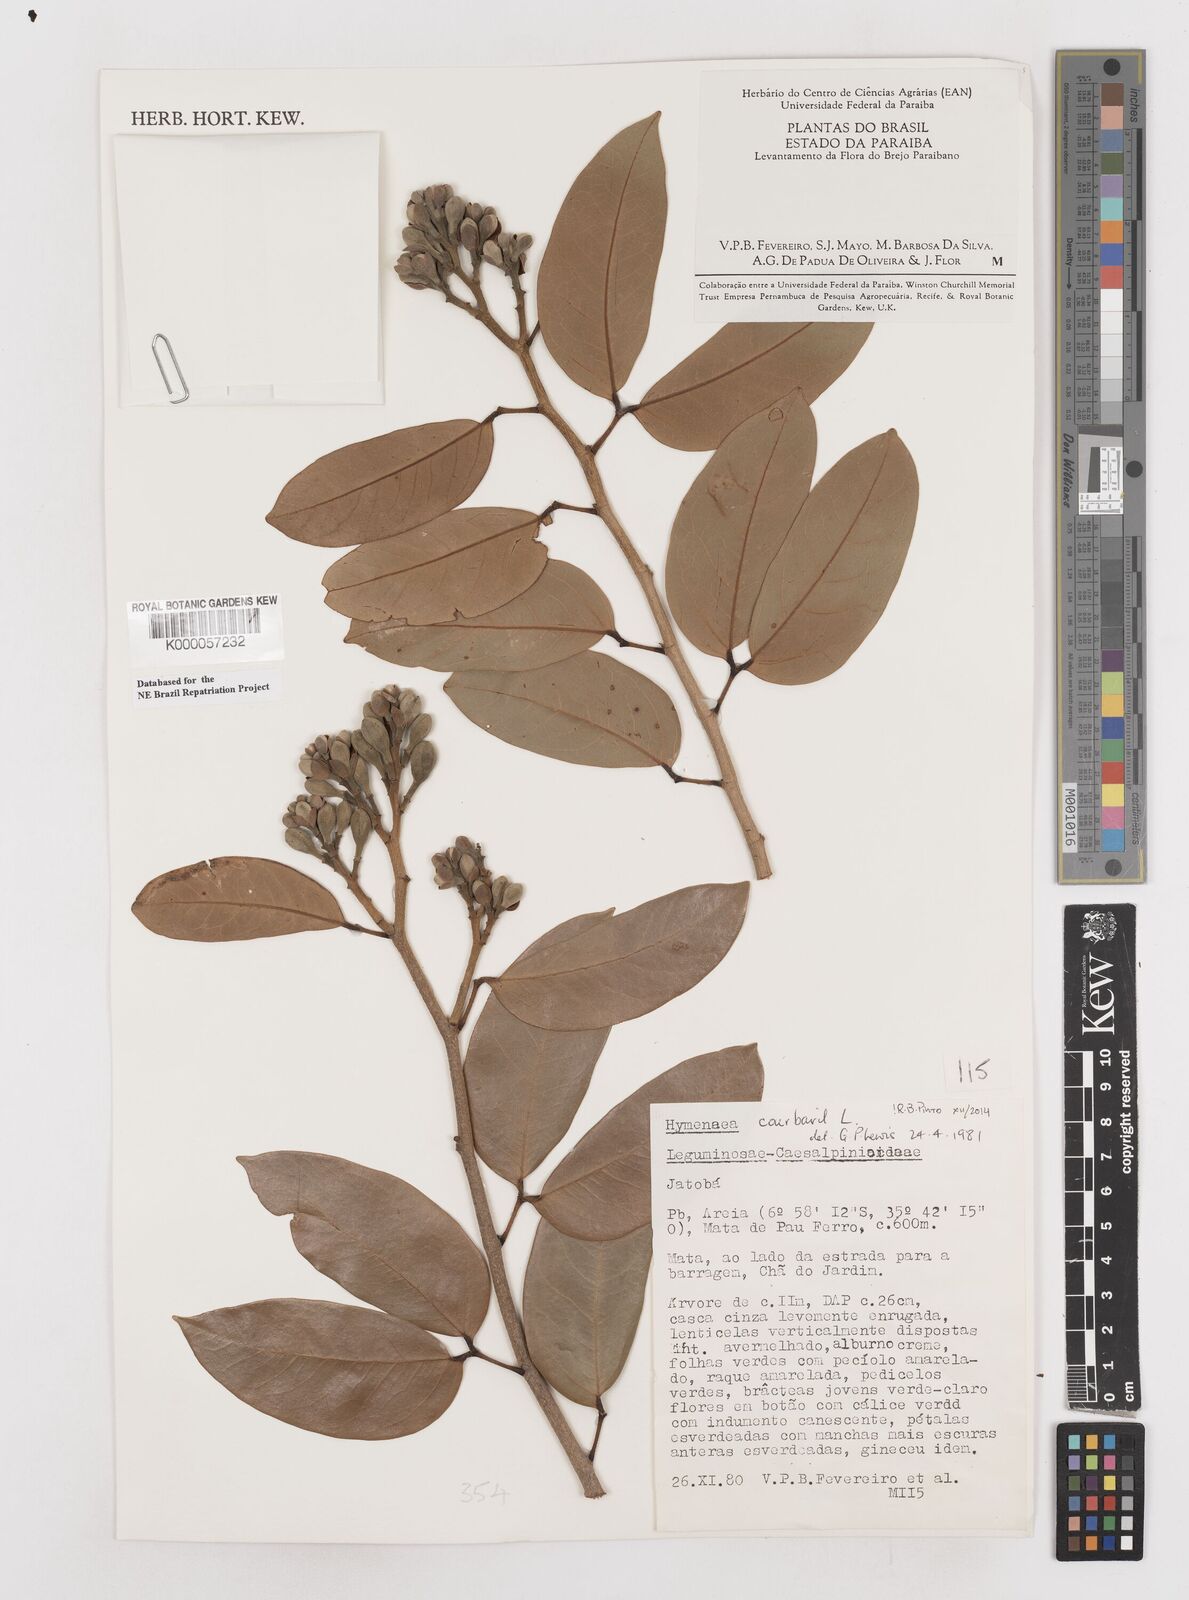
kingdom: Plantae
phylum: Tracheophyta
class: Magnoliopsida
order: Fabales
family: Fabaceae
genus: Hymenaea
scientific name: Hymenaea courbaril
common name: Brazilian copal
